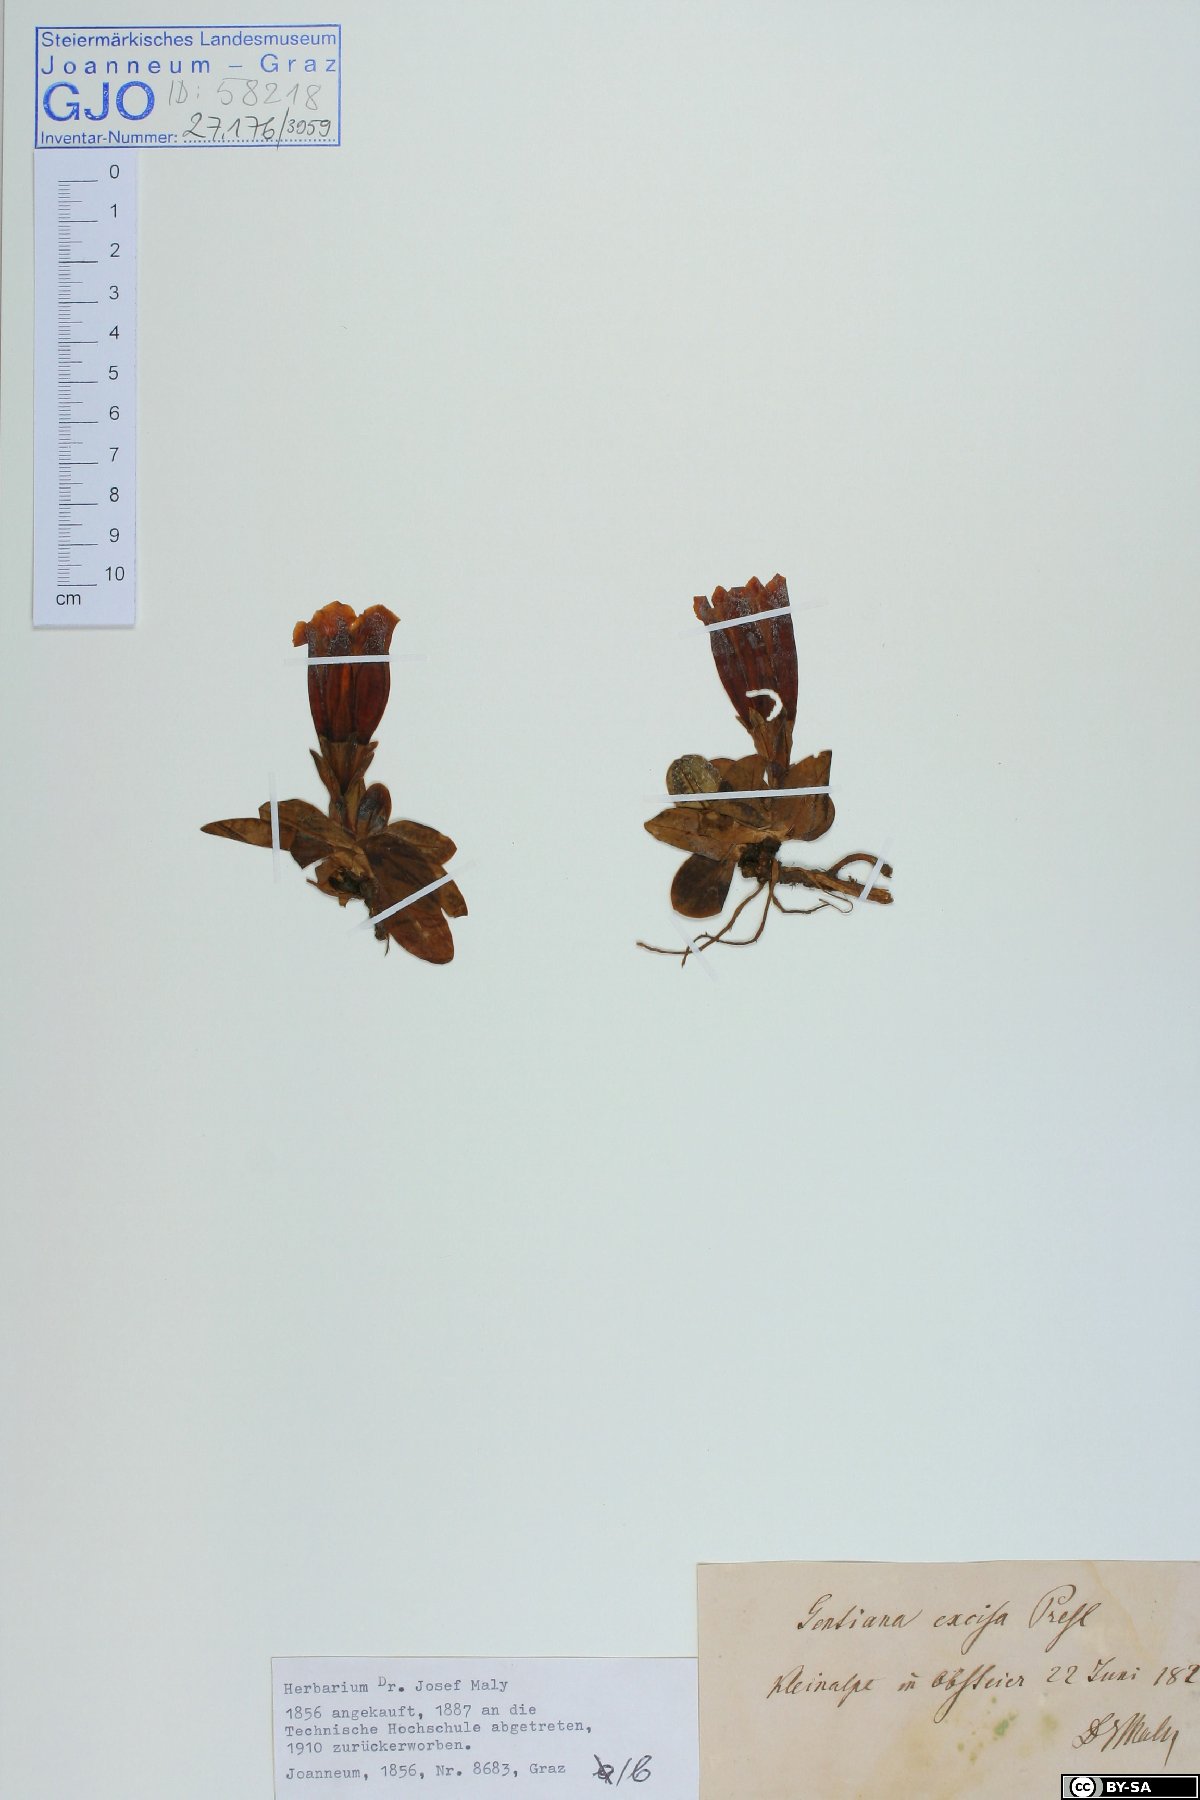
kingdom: Plantae
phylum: Tracheophyta
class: Magnoliopsida
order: Gentianales
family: Gentianaceae
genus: Gentiana
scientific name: Gentiana acaulis
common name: Trumpet gentian
